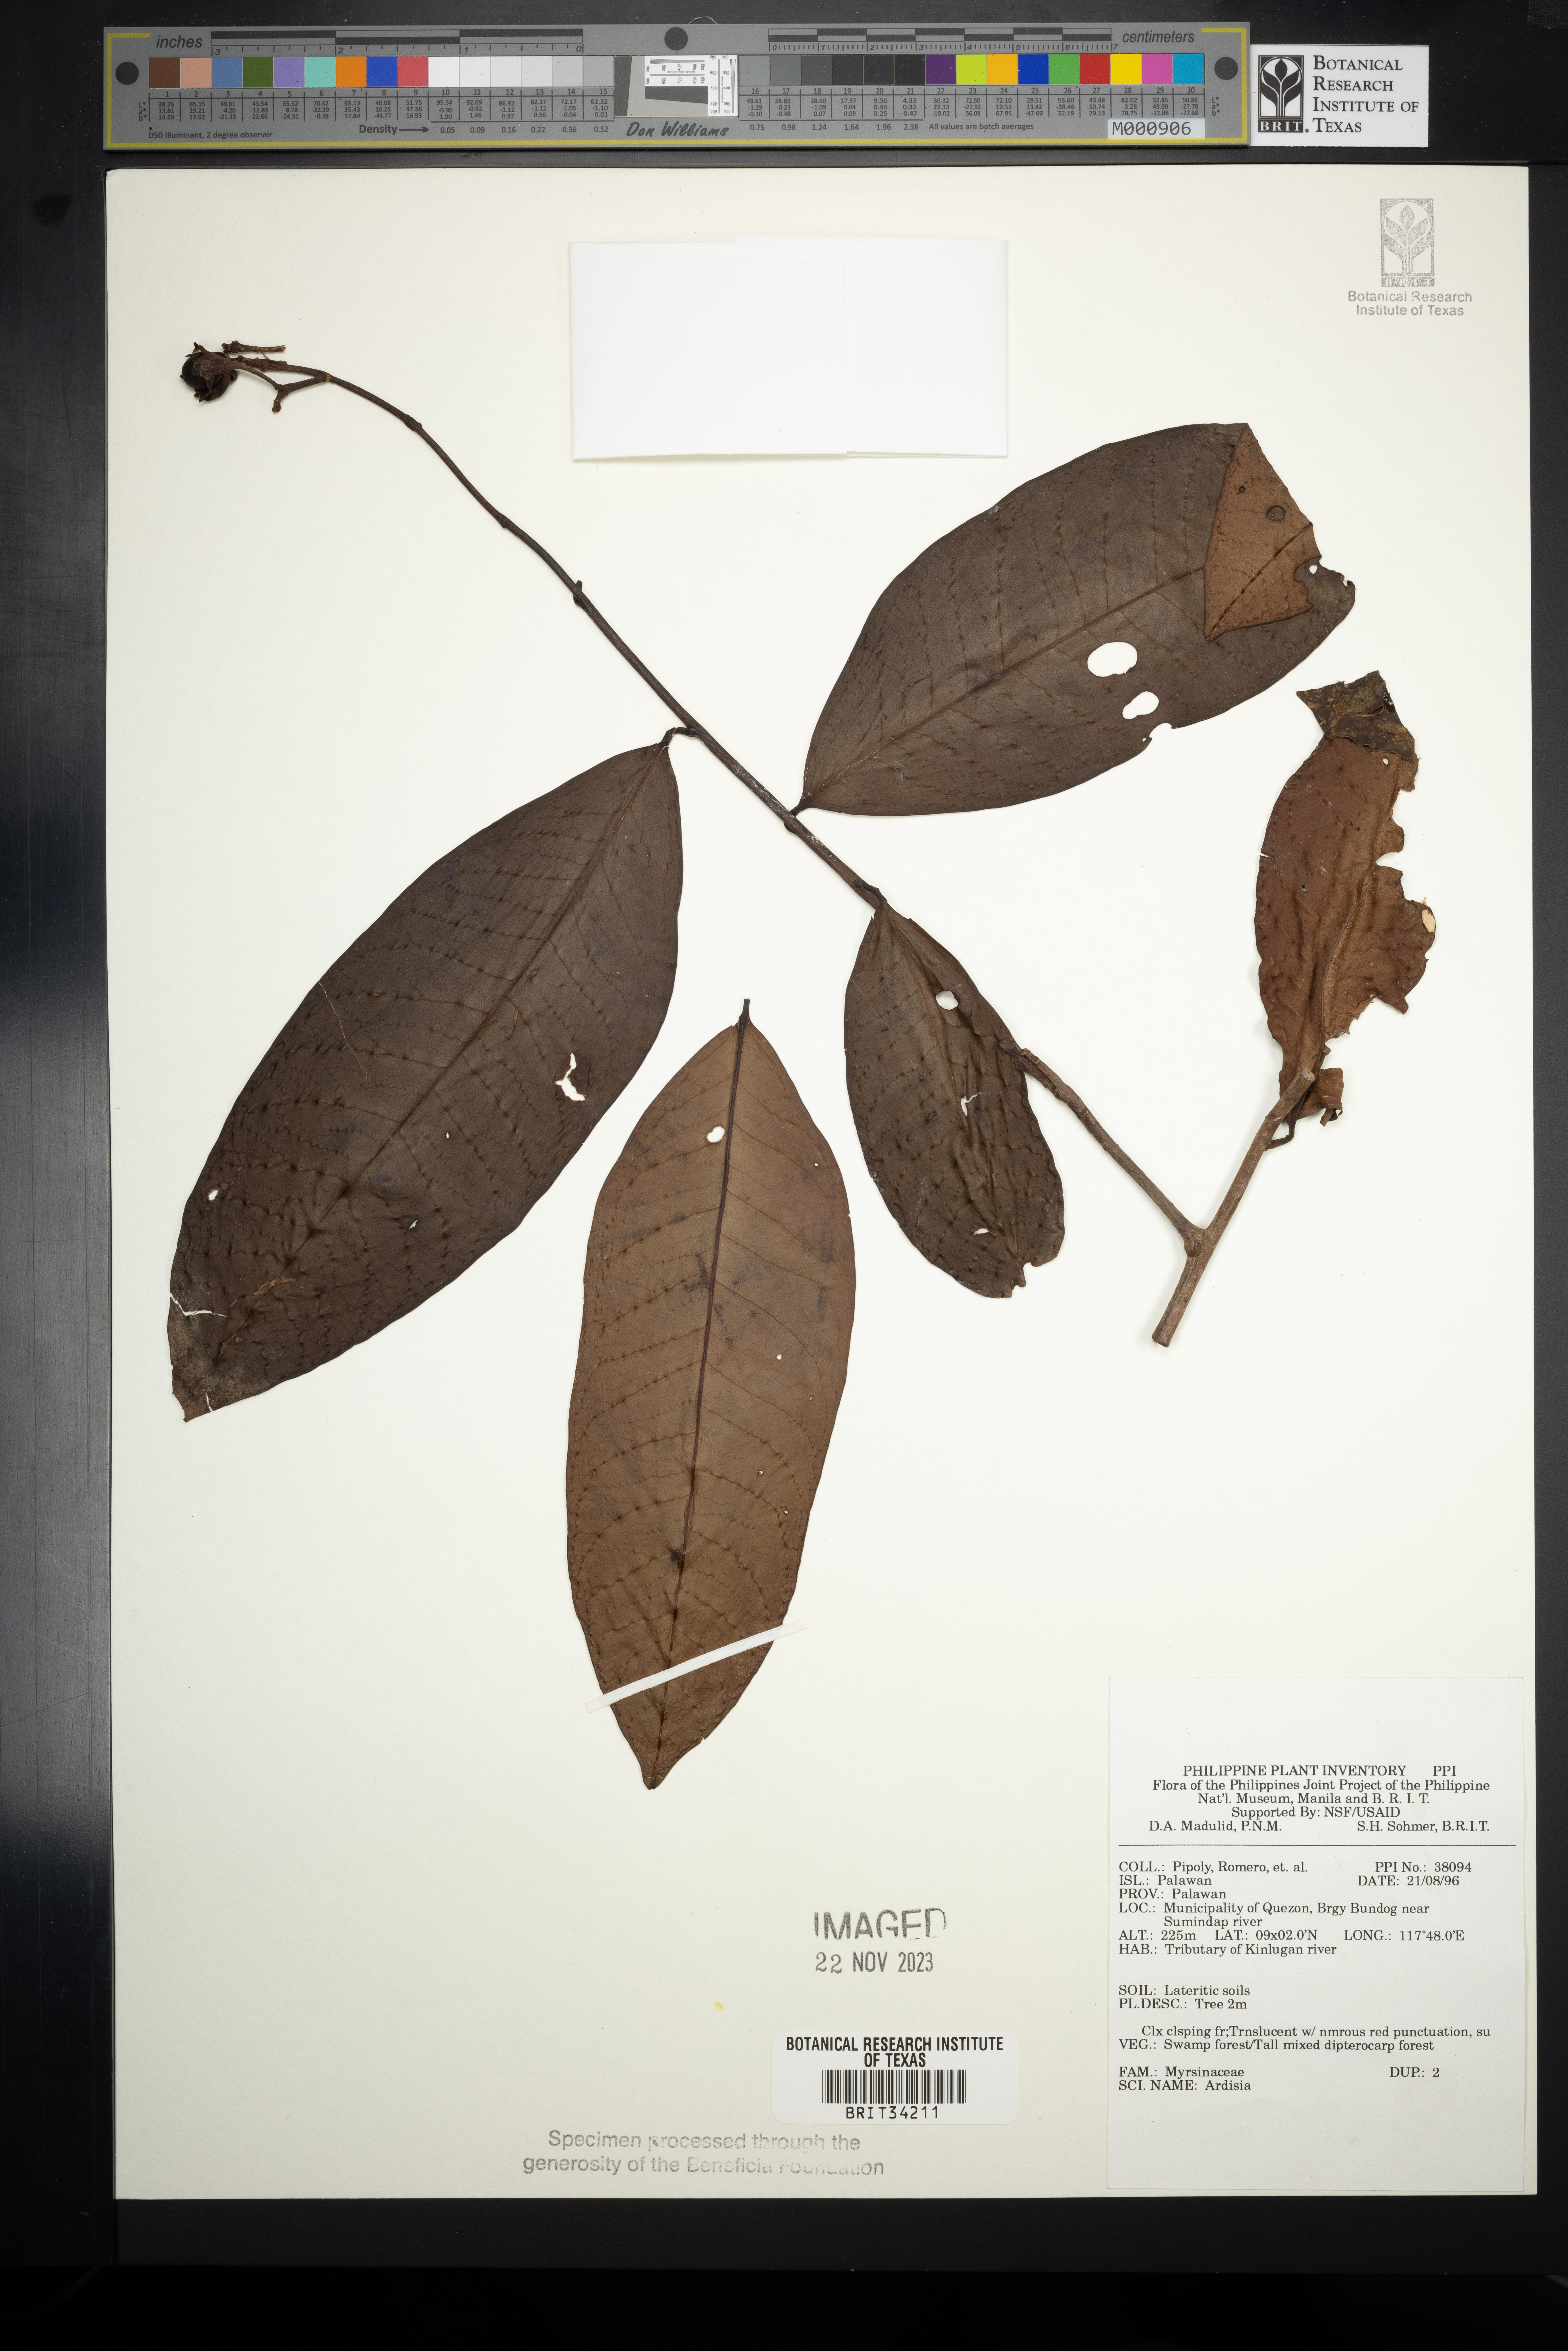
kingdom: Plantae
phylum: Tracheophyta
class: Magnoliopsida
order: Ericales
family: Primulaceae
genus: Ardisia
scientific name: Ardisia
